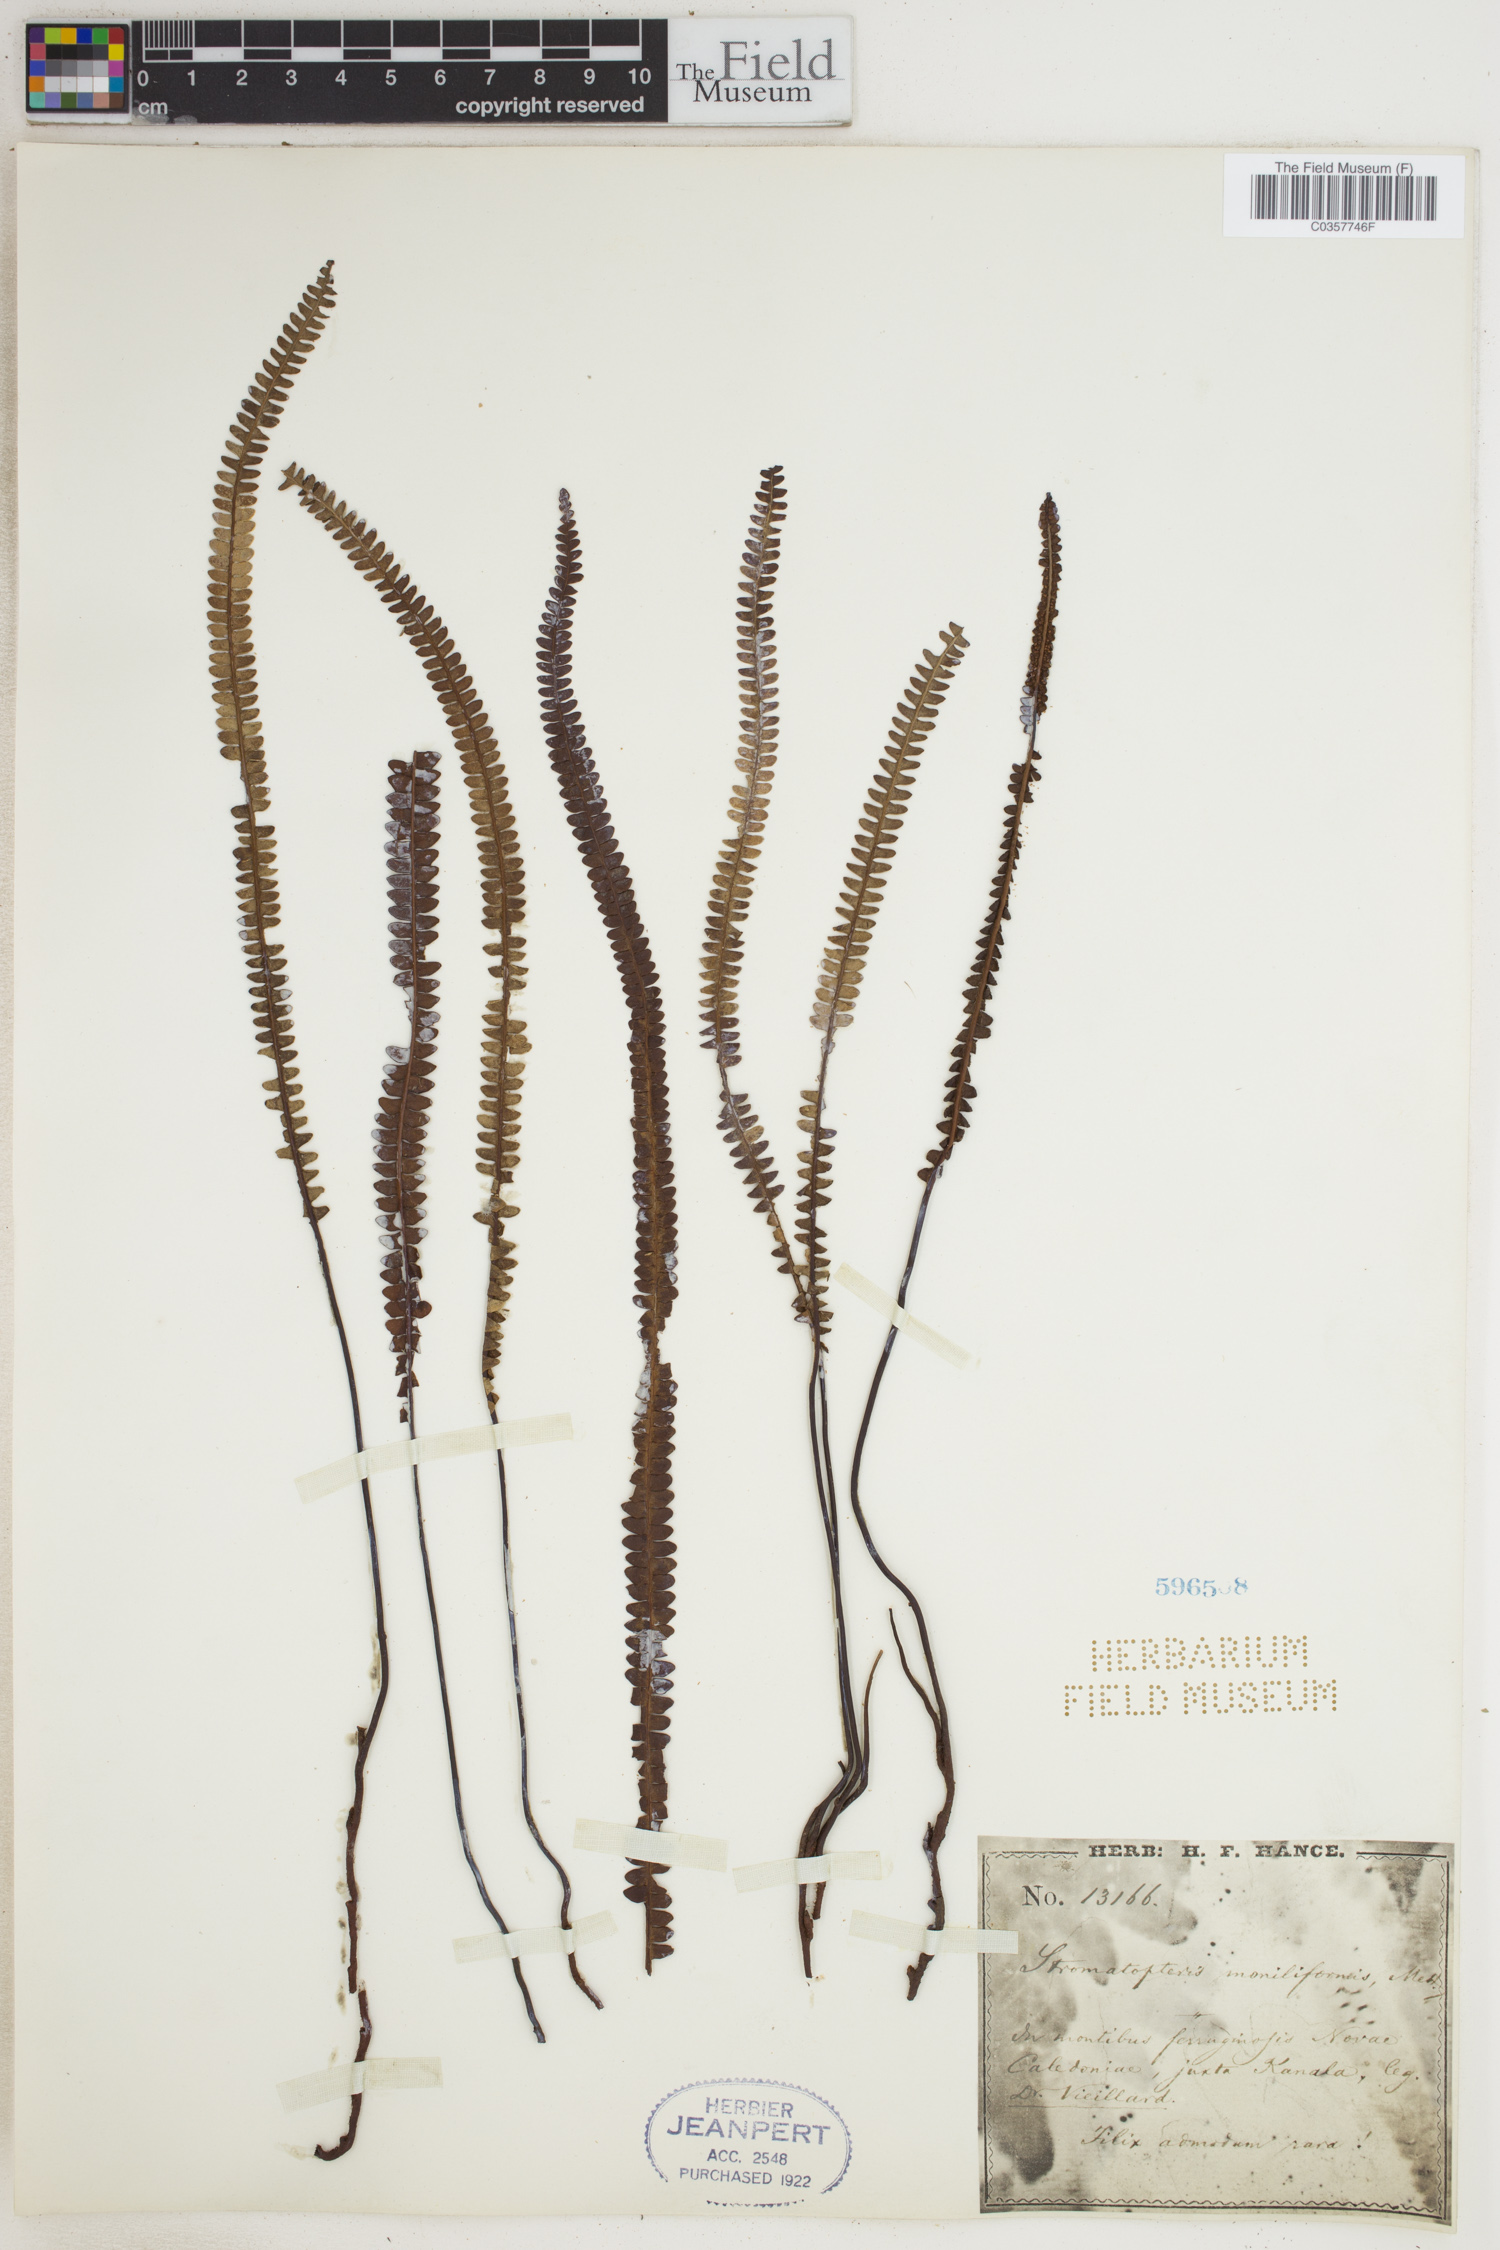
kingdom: Plantae
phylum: Tracheophyta
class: Polypodiopsida
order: Gleicheniales
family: Gleicheniaceae
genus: Stromatopteris
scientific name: Stromatopteris moniliformis
